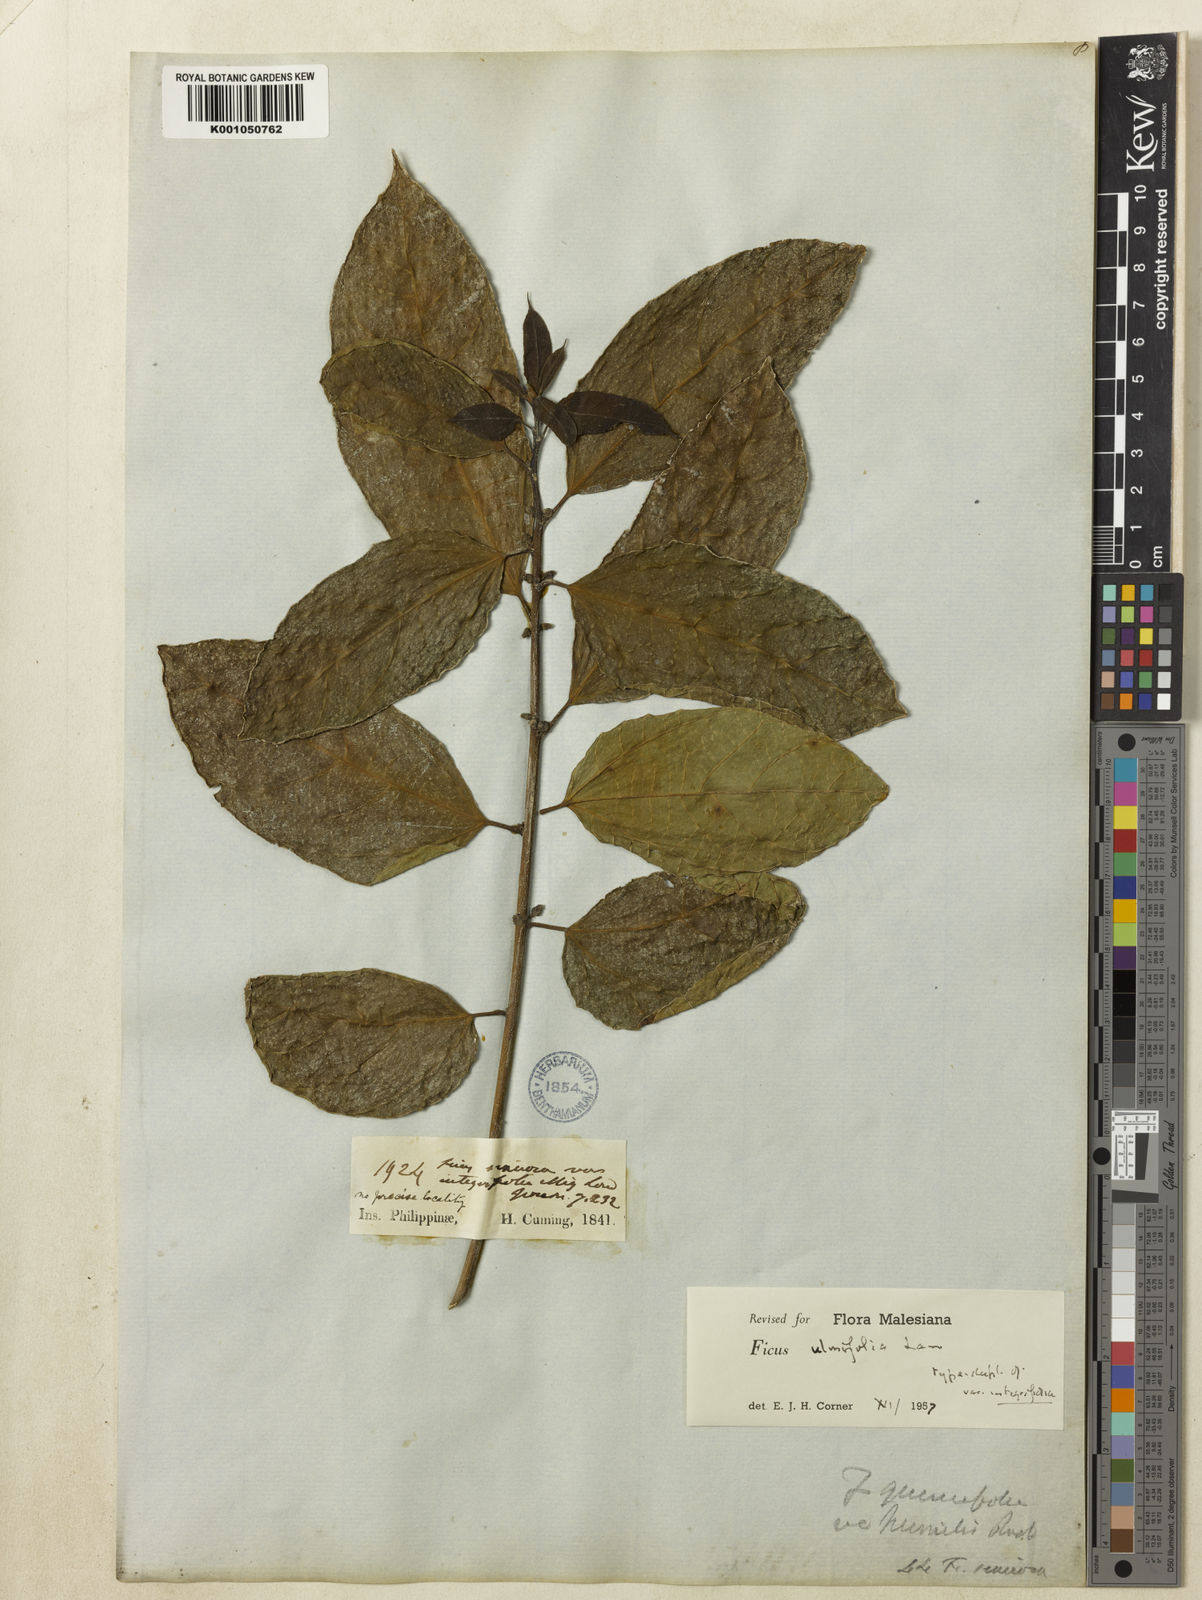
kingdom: Plantae
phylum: Tracheophyta
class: Magnoliopsida
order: Rosales
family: Moraceae
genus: Ficus
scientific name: Ficus ulmifolia
